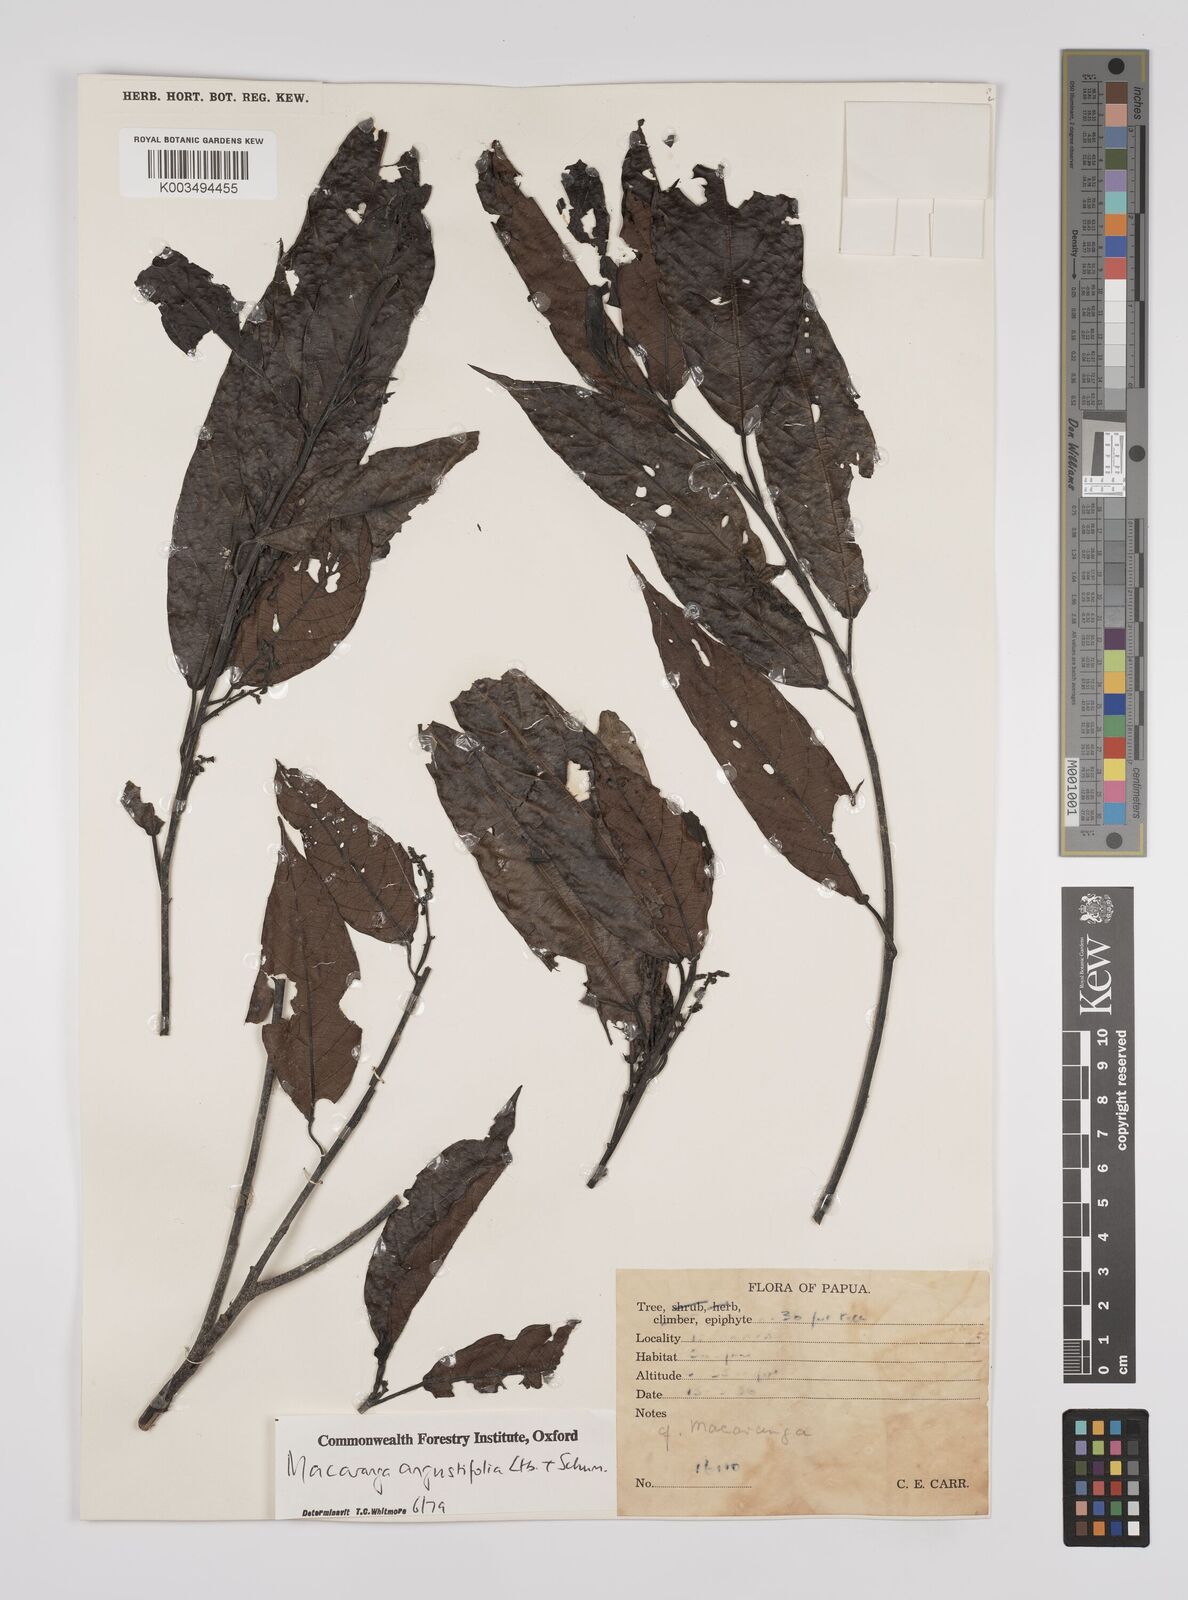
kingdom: Plantae
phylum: Tracheophyta
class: Magnoliopsida
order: Malpighiales
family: Euphorbiaceae
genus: Macaranga
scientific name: Macaranga angustifolia
